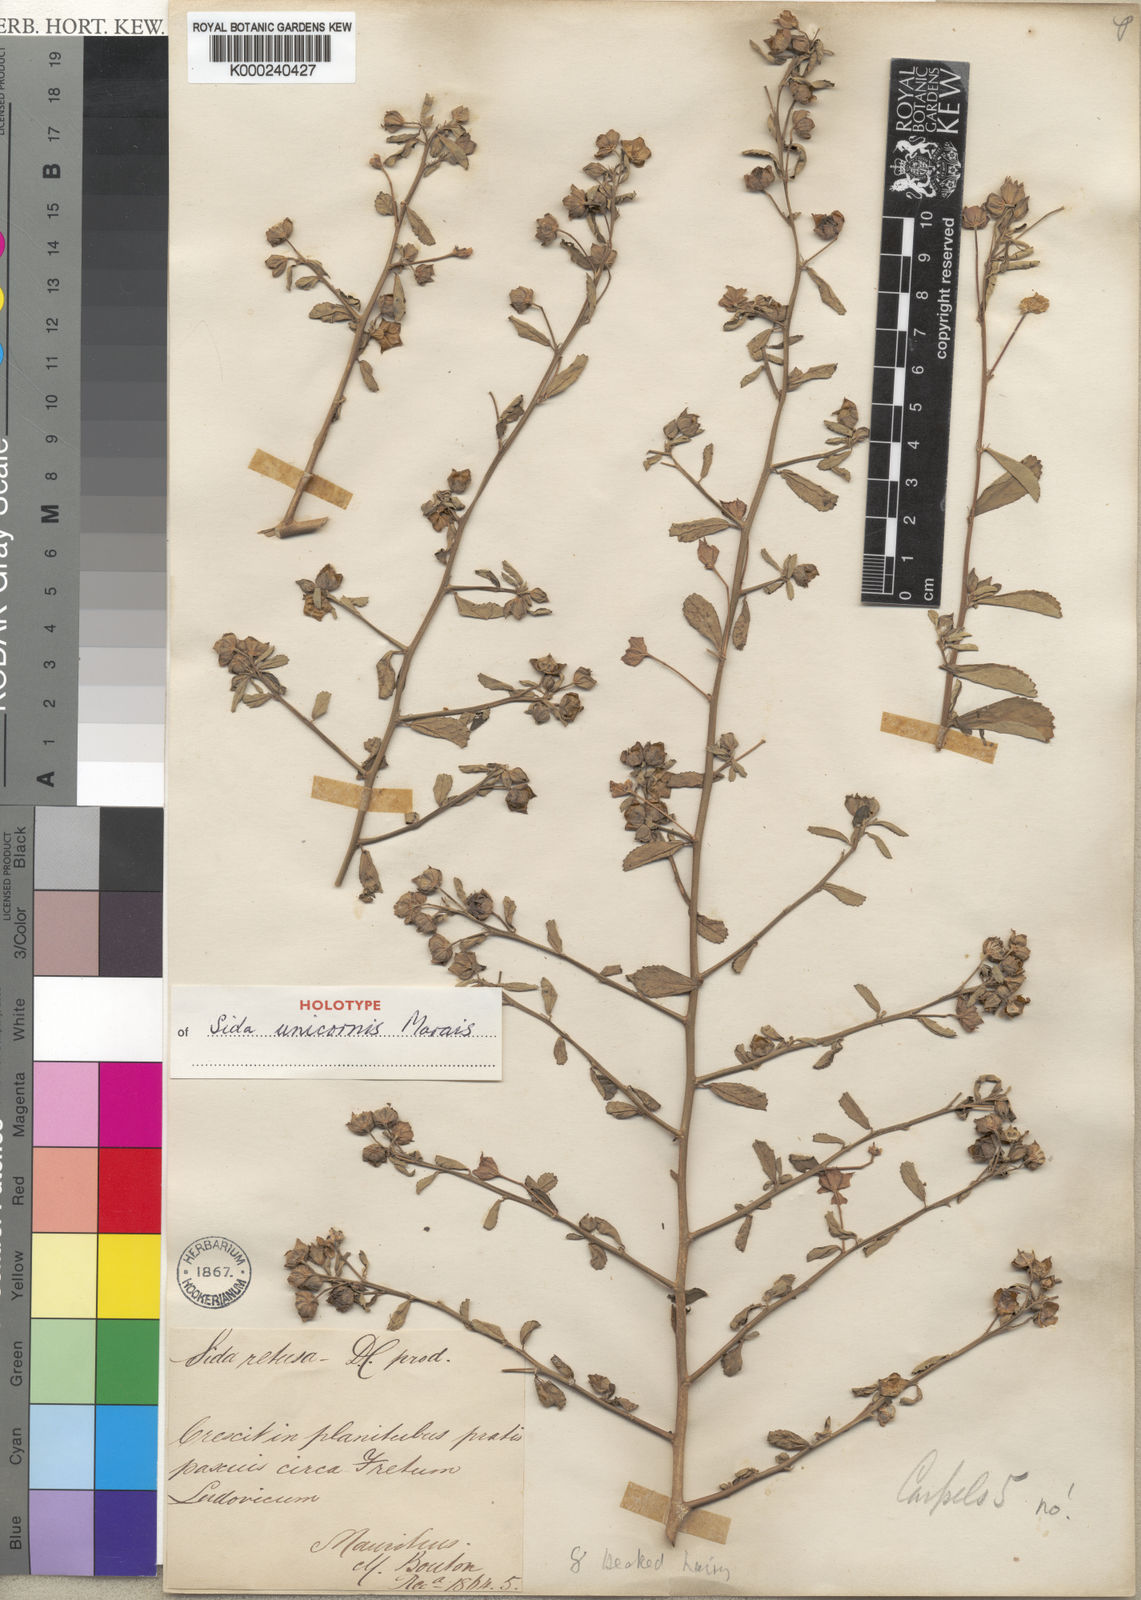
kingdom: Plantae
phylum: Tracheophyta
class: Magnoliopsida
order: Malvales
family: Malvaceae
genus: Sida
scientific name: Sida unicornis
